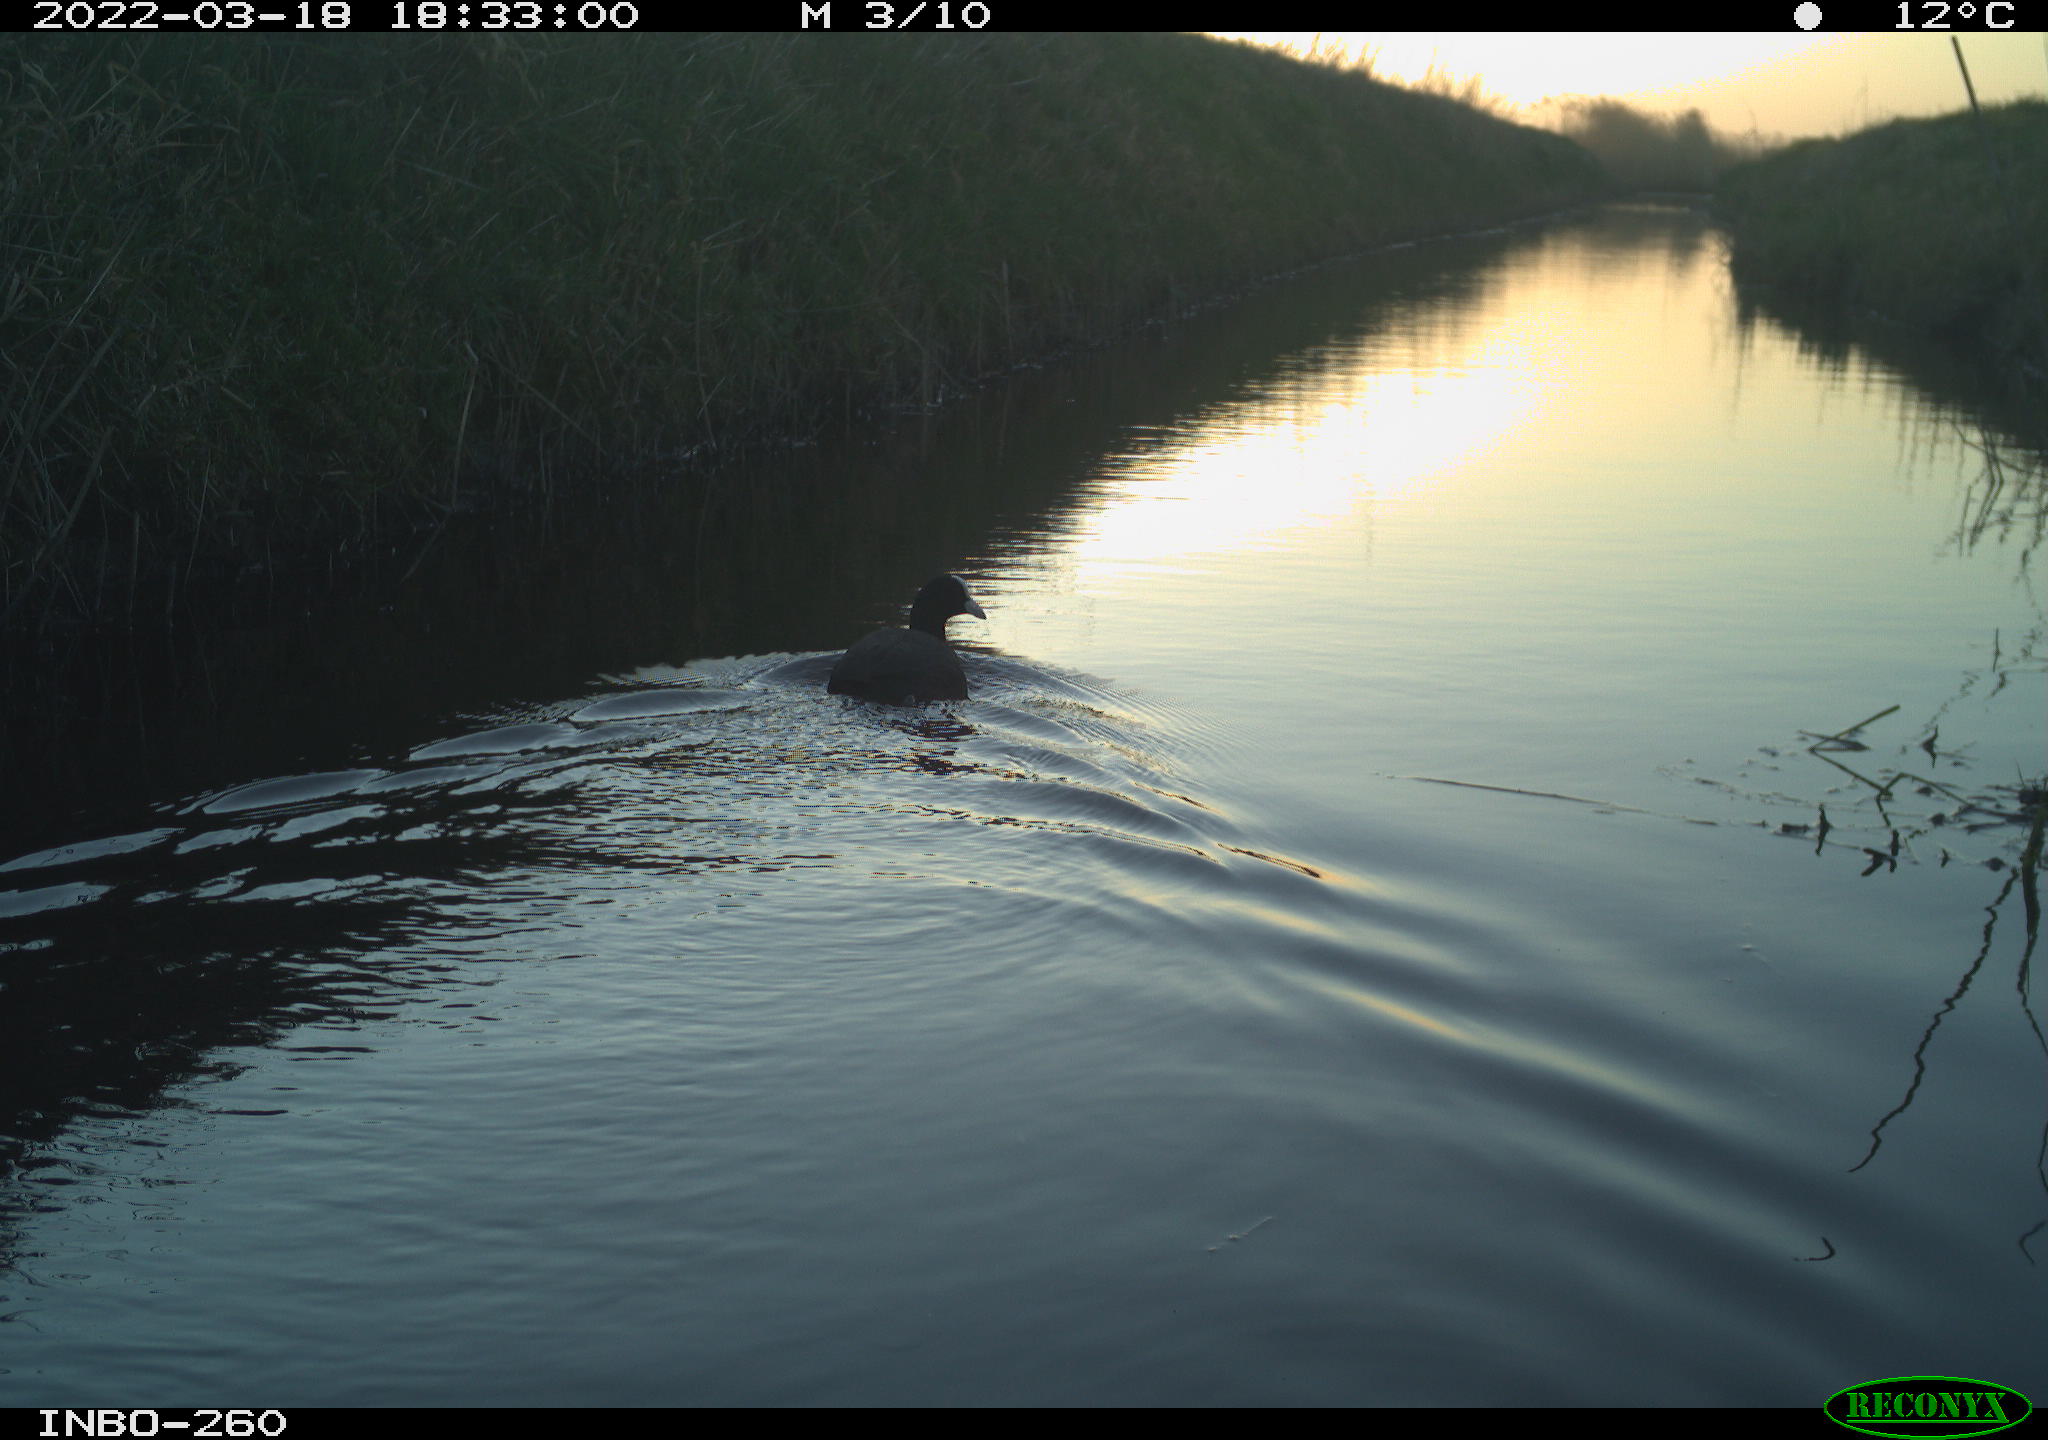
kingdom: Animalia
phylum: Chordata
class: Aves
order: Gruiformes
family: Rallidae
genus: Fulica
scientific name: Fulica atra
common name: Eurasian coot
